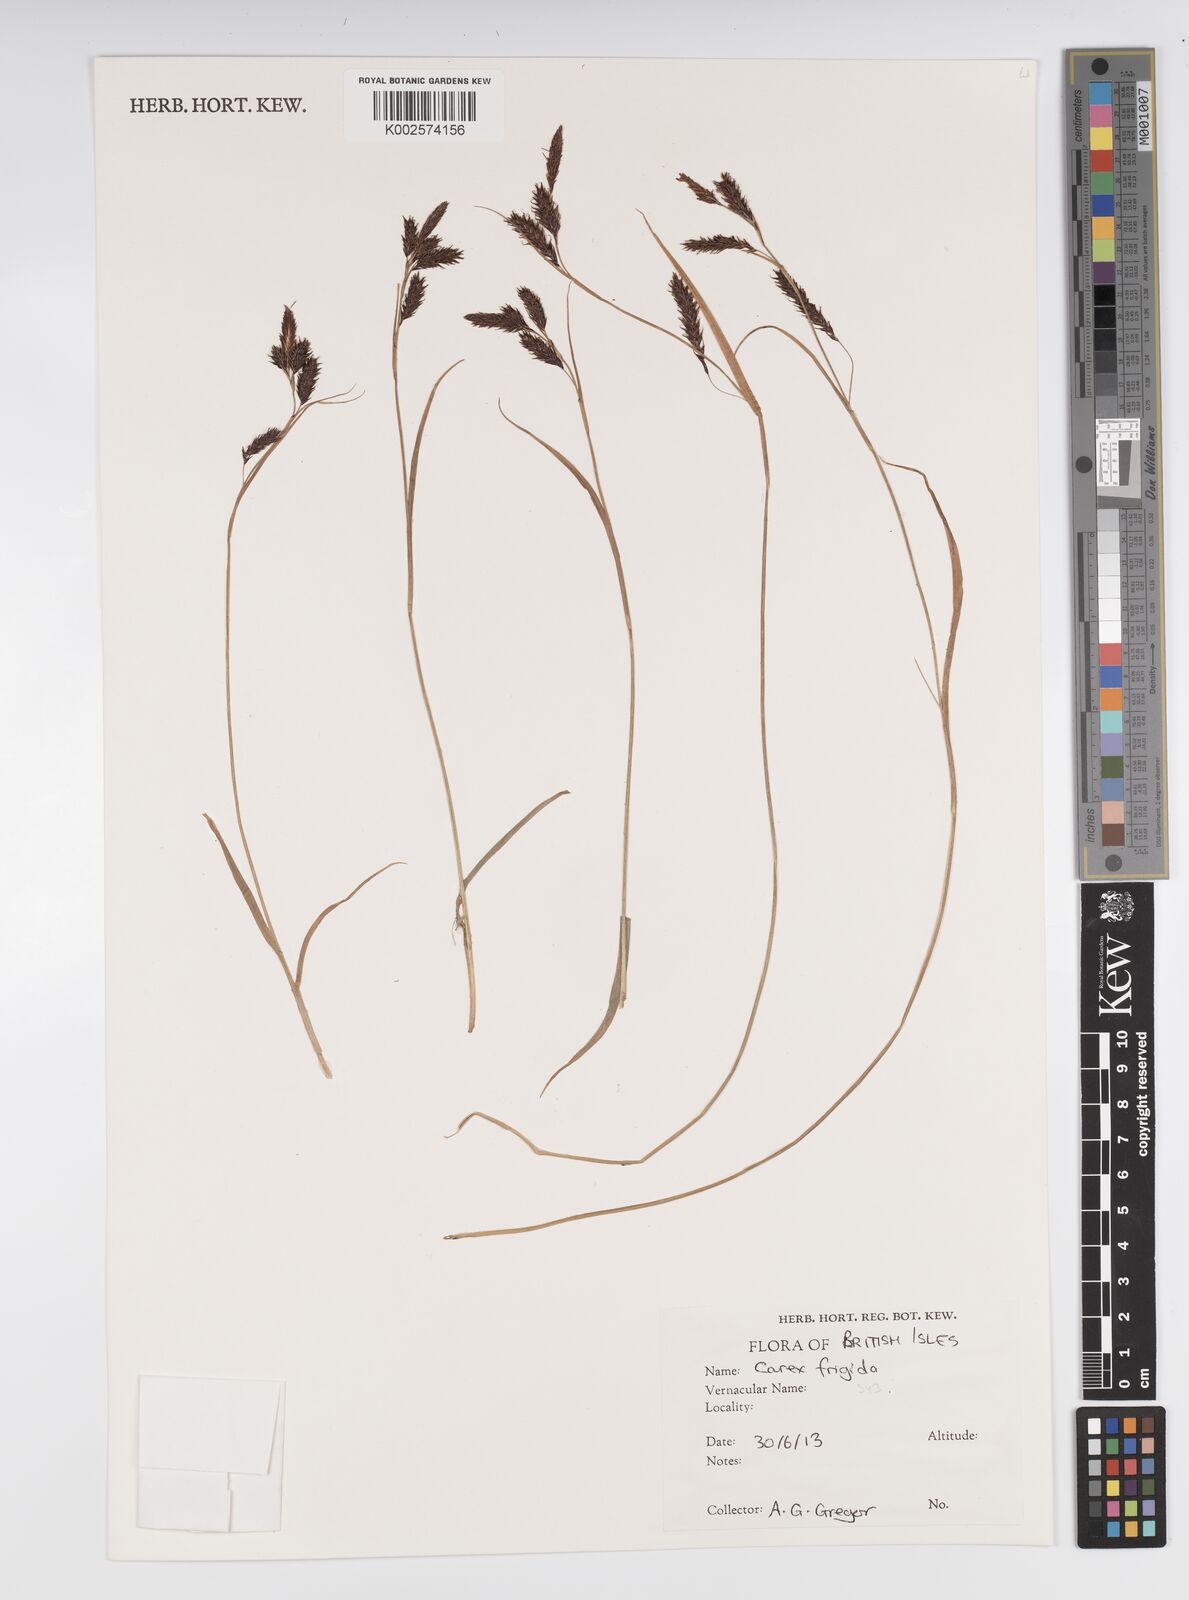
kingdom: Plantae
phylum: Tracheophyta
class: Liliopsida
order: Poales
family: Cyperaceae
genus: Carex
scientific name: Carex ferruginea
